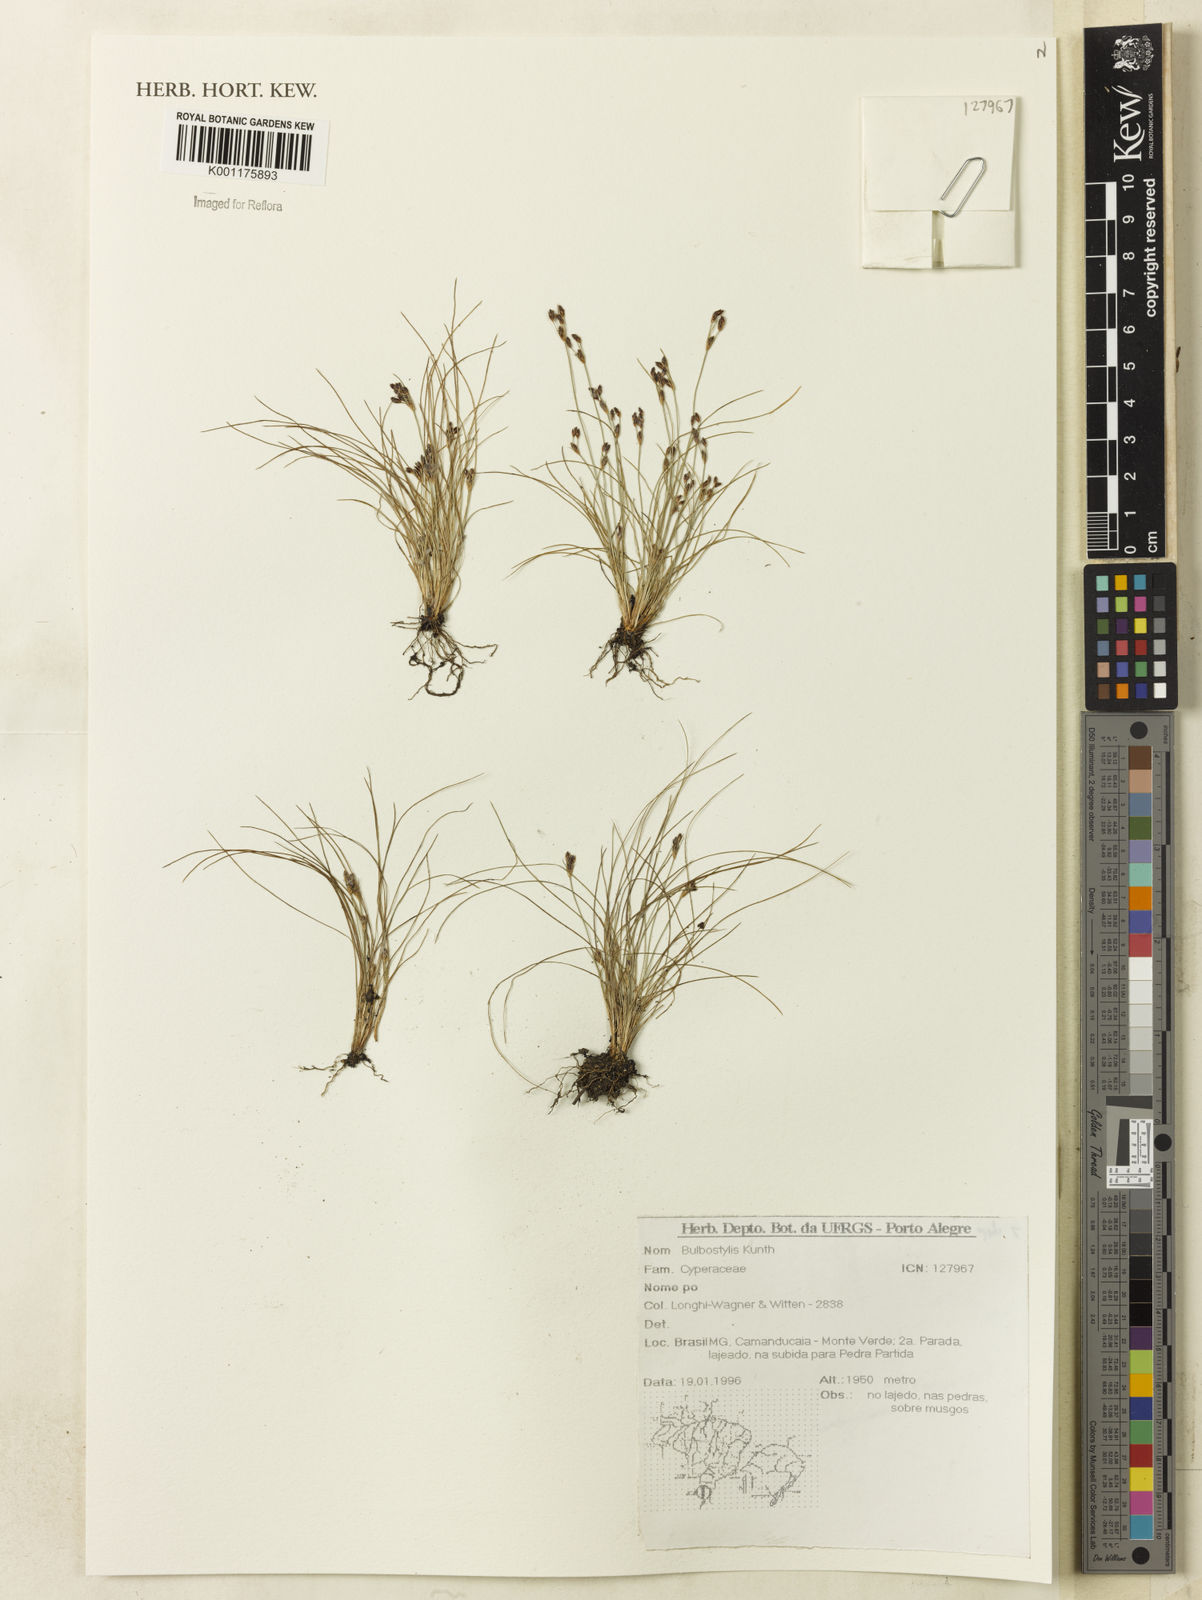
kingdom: Plantae
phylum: Tracheophyta
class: Liliopsida
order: Poales
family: Cyperaceae
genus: Bulbostylis
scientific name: Bulbostylis
